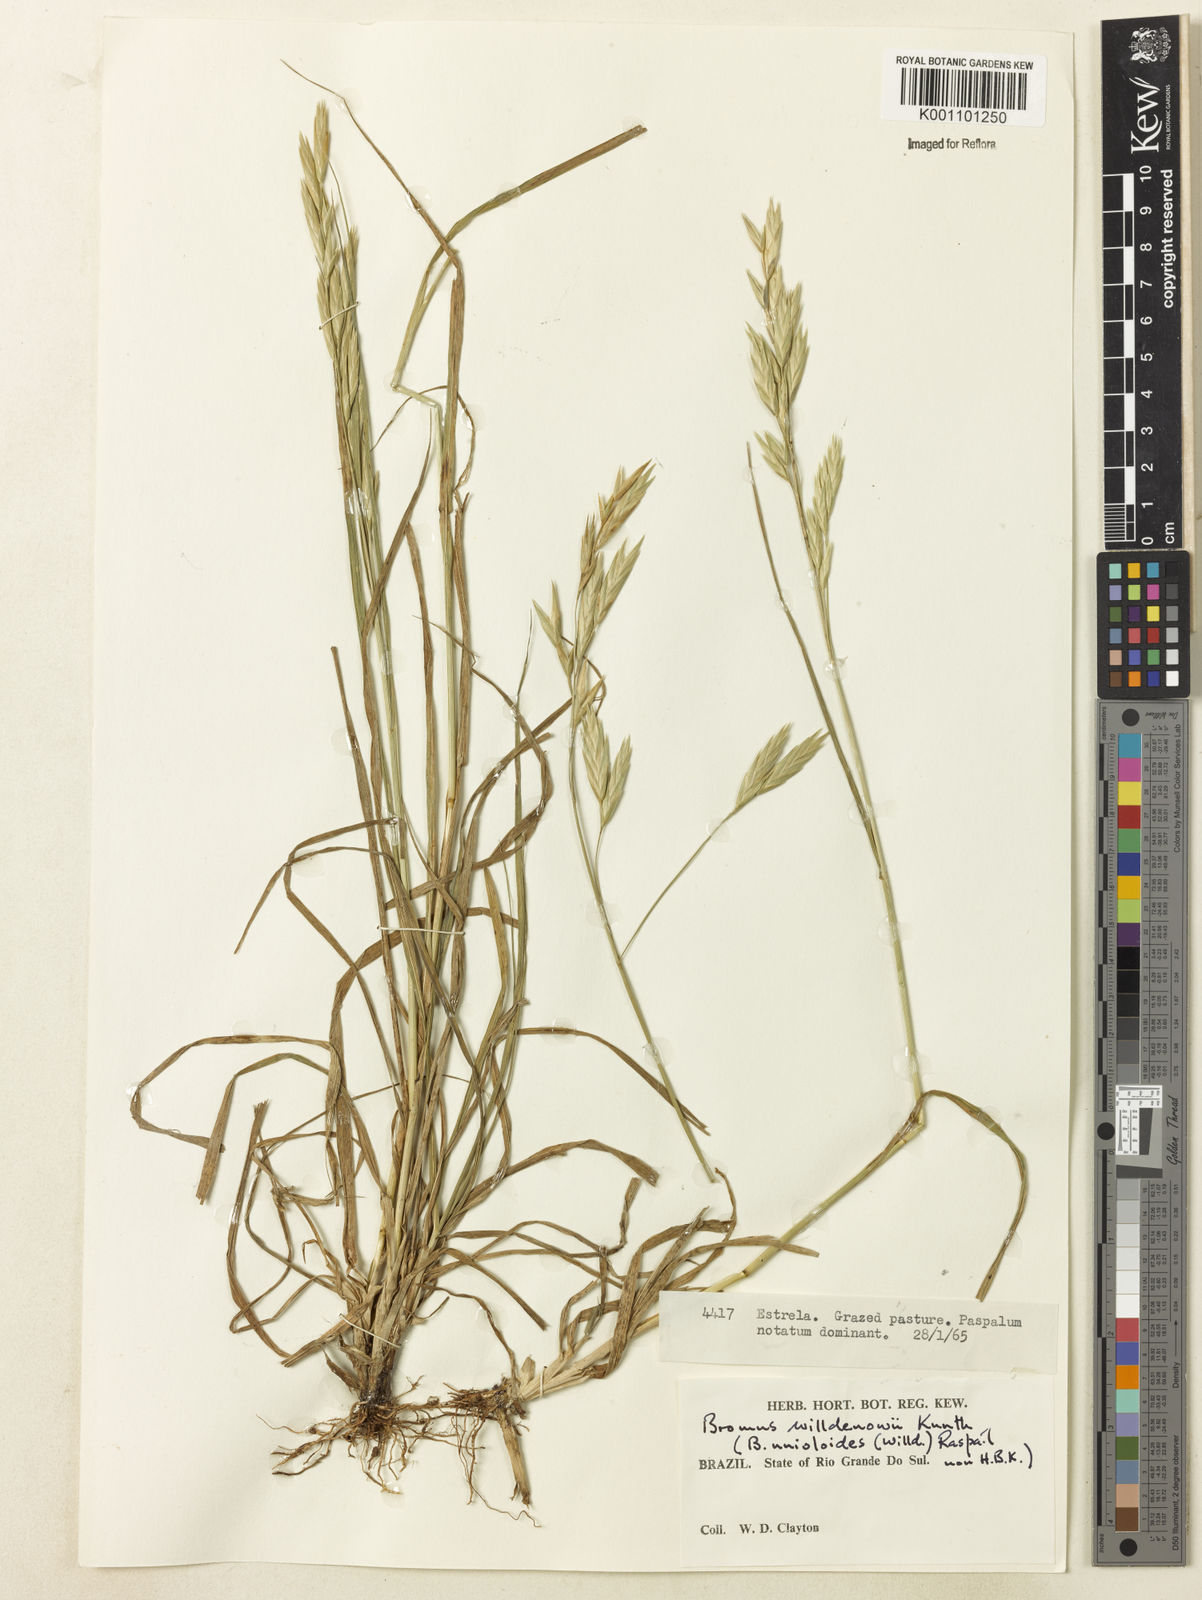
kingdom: Plantae
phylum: Tracheophyta
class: Liliopsida
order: Poales
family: Poaceae
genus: Bromus
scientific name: Bromus catharticus
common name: Rescuegrass
